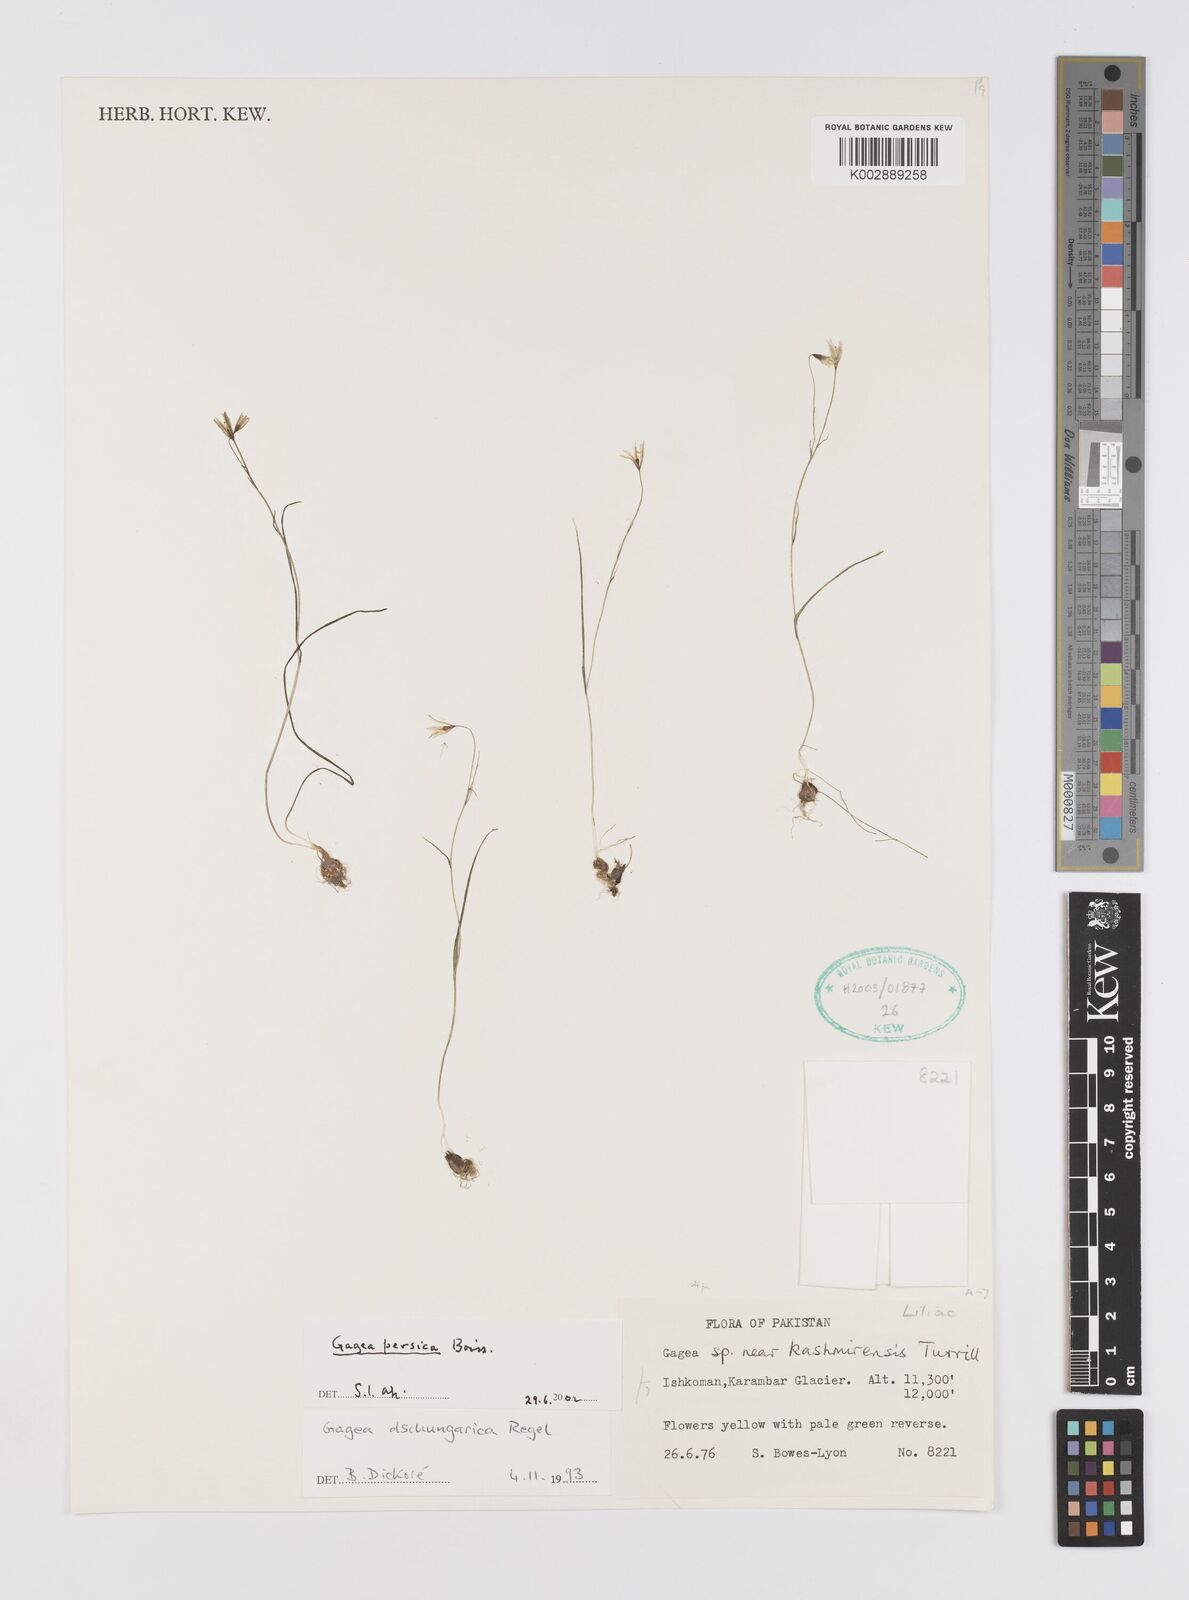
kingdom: Plantae
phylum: Tracheophyta
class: Liliopsida
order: Liliales
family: Liliaceae
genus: Gagea
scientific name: Gagea gageoides
